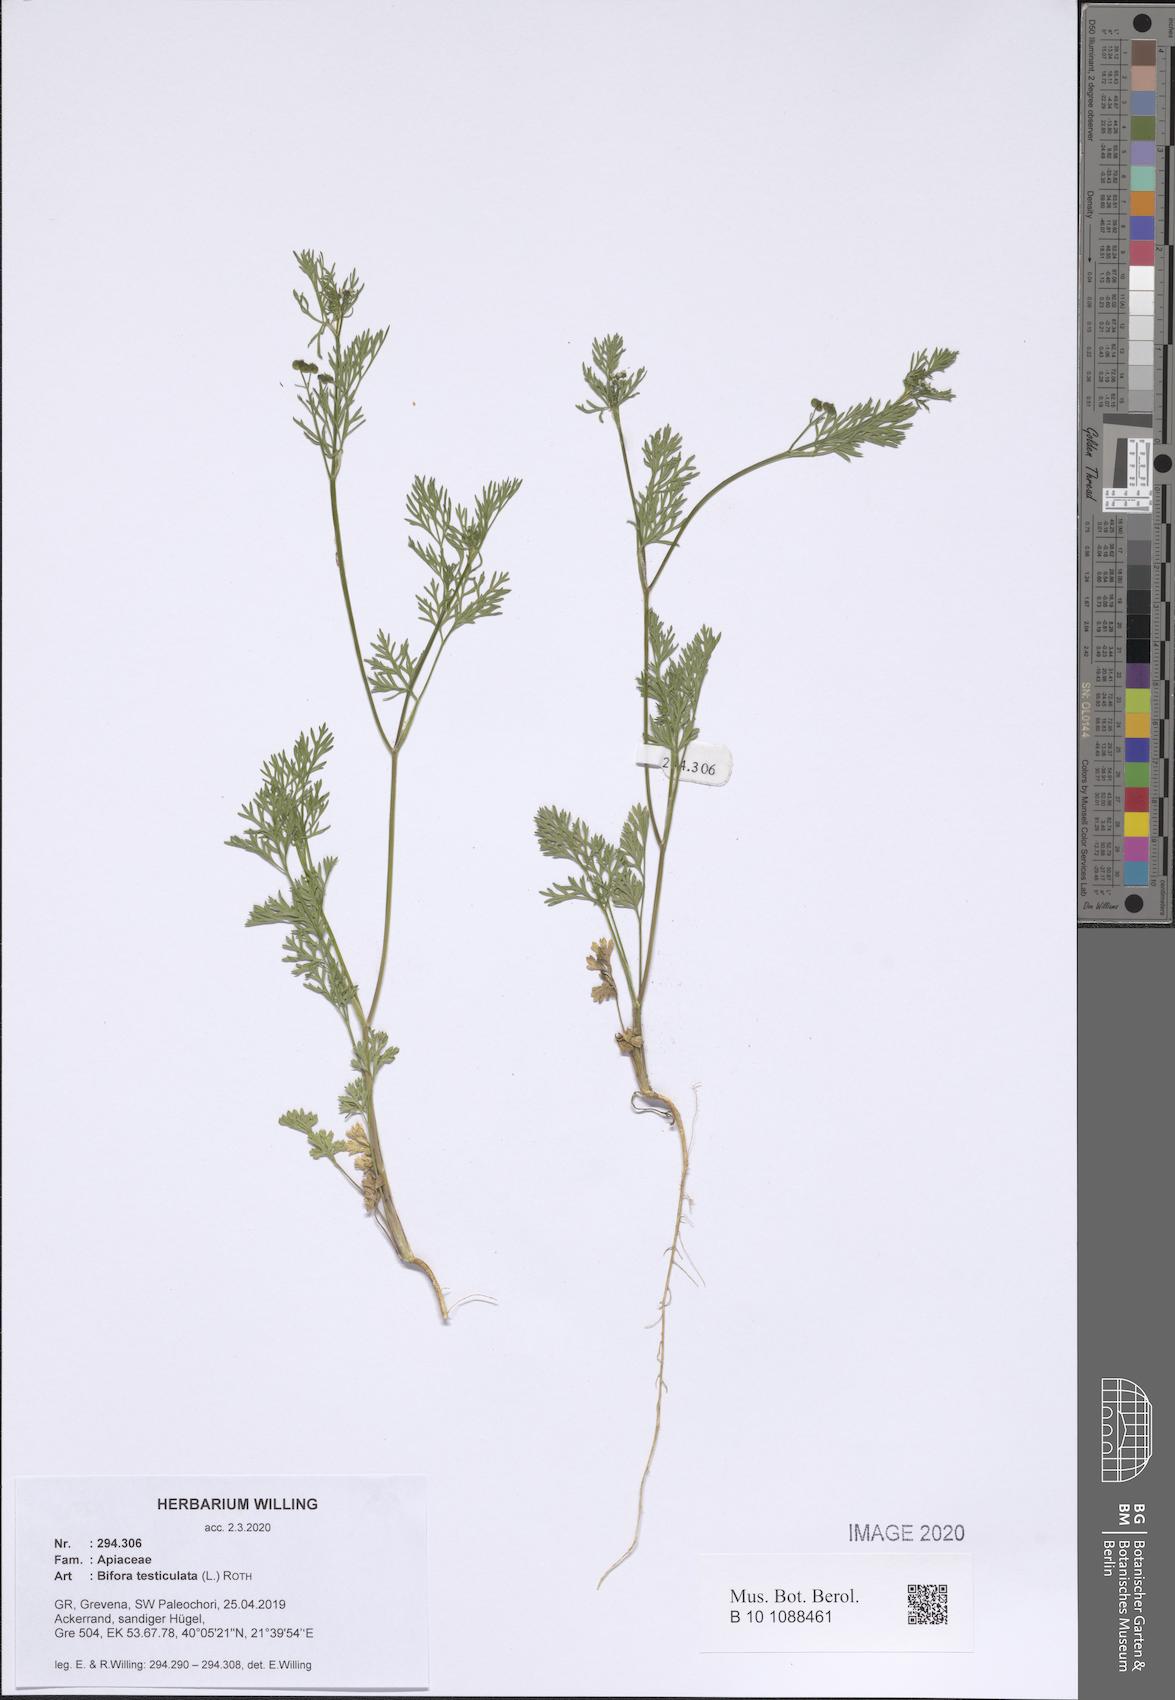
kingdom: Plantae
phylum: Tracheophyta
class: Magnoliopsida
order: Apiales
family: Apiaceae
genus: Bifora
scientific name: Bifora testiculata
